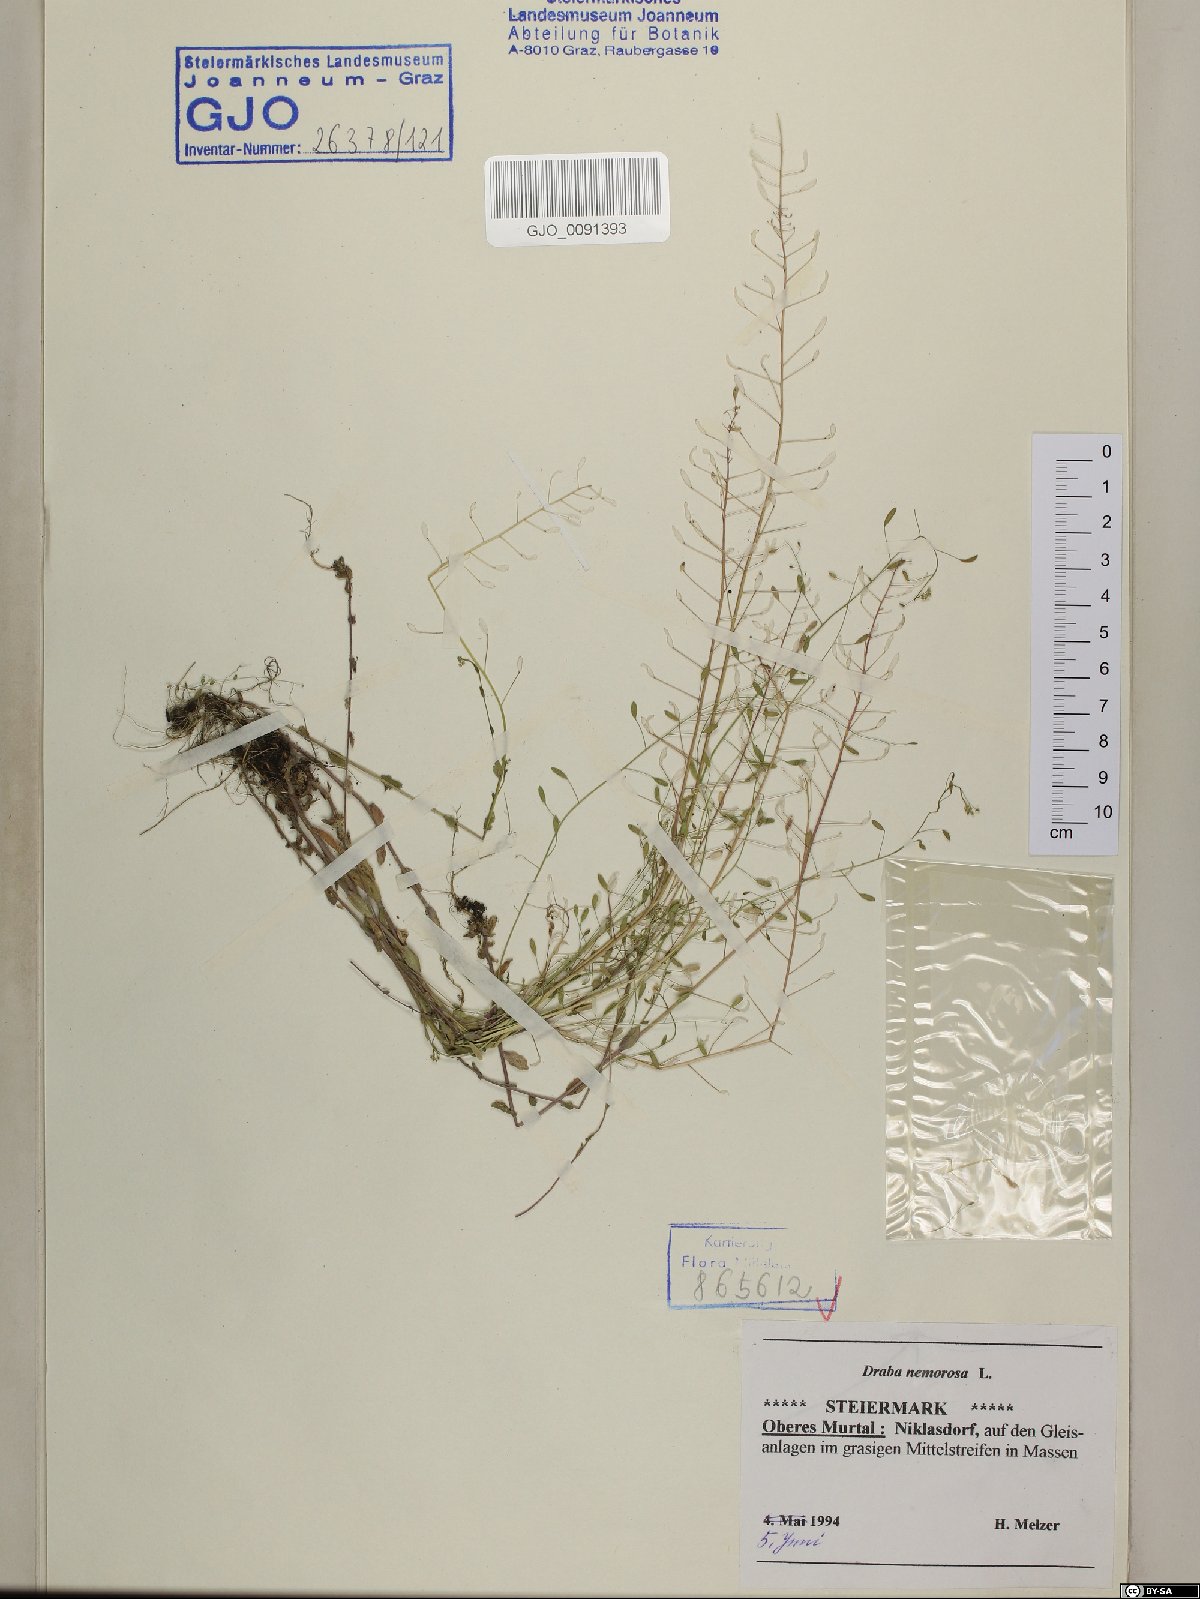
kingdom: Plantae
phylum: Tracheophyta
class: Magnoliopsida
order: Brassicales
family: Brassicaceae
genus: Draba
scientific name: Draba nemorosa
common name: Wood whitlow-grass
